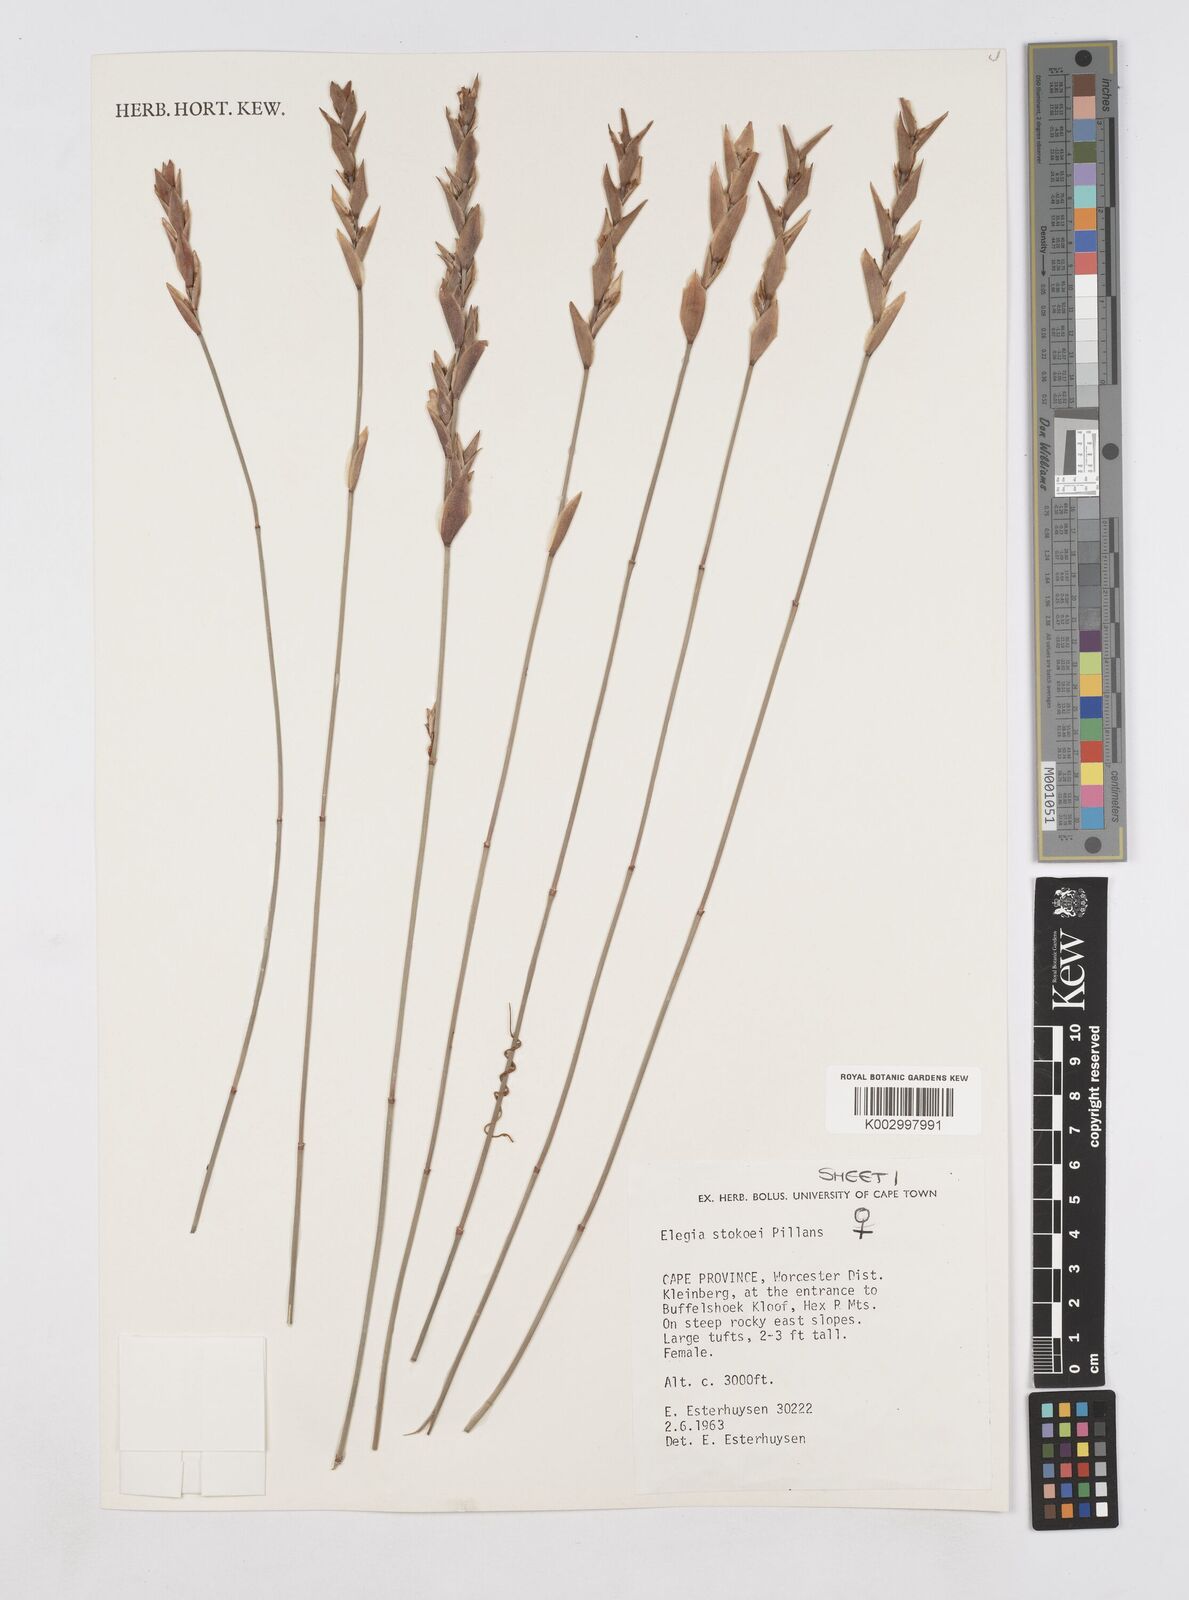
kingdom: Plantae
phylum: Tracheophyta
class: Liliopsida
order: Poales
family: Restionaceae
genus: Elegia
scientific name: Elegia stokoei
